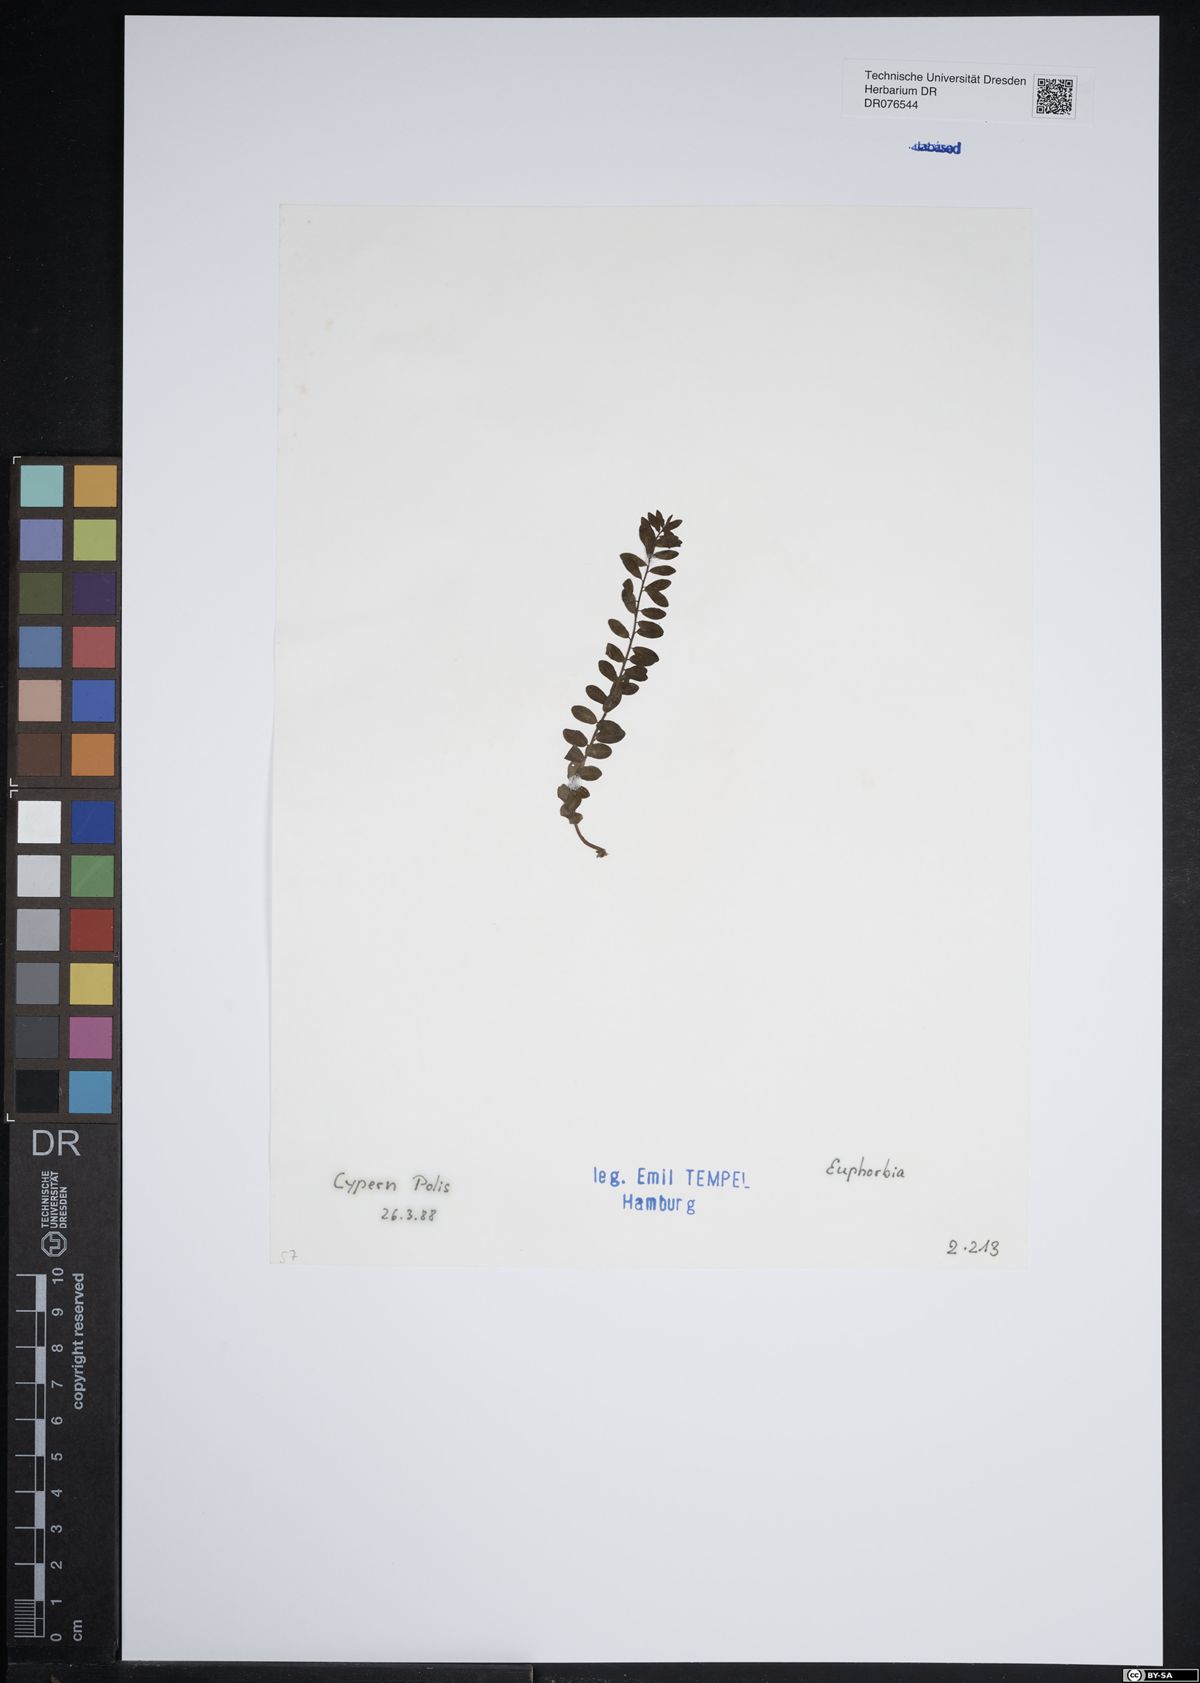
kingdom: Plantae
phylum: Tracheophyta
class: Magnoliopsida
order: Malpighiales
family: Euphorbiaceae
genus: Euphorbia
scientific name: Euphorbia
